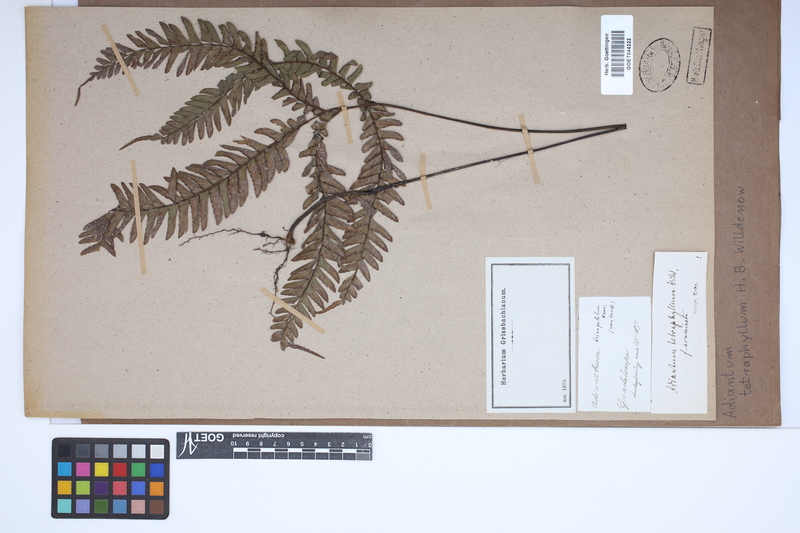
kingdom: Plantae
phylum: Tracheophyta
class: Polypodiopsida
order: Polypodiales
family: Pteridaceae
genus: Adiantum
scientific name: Adiantum tetraphyllum
